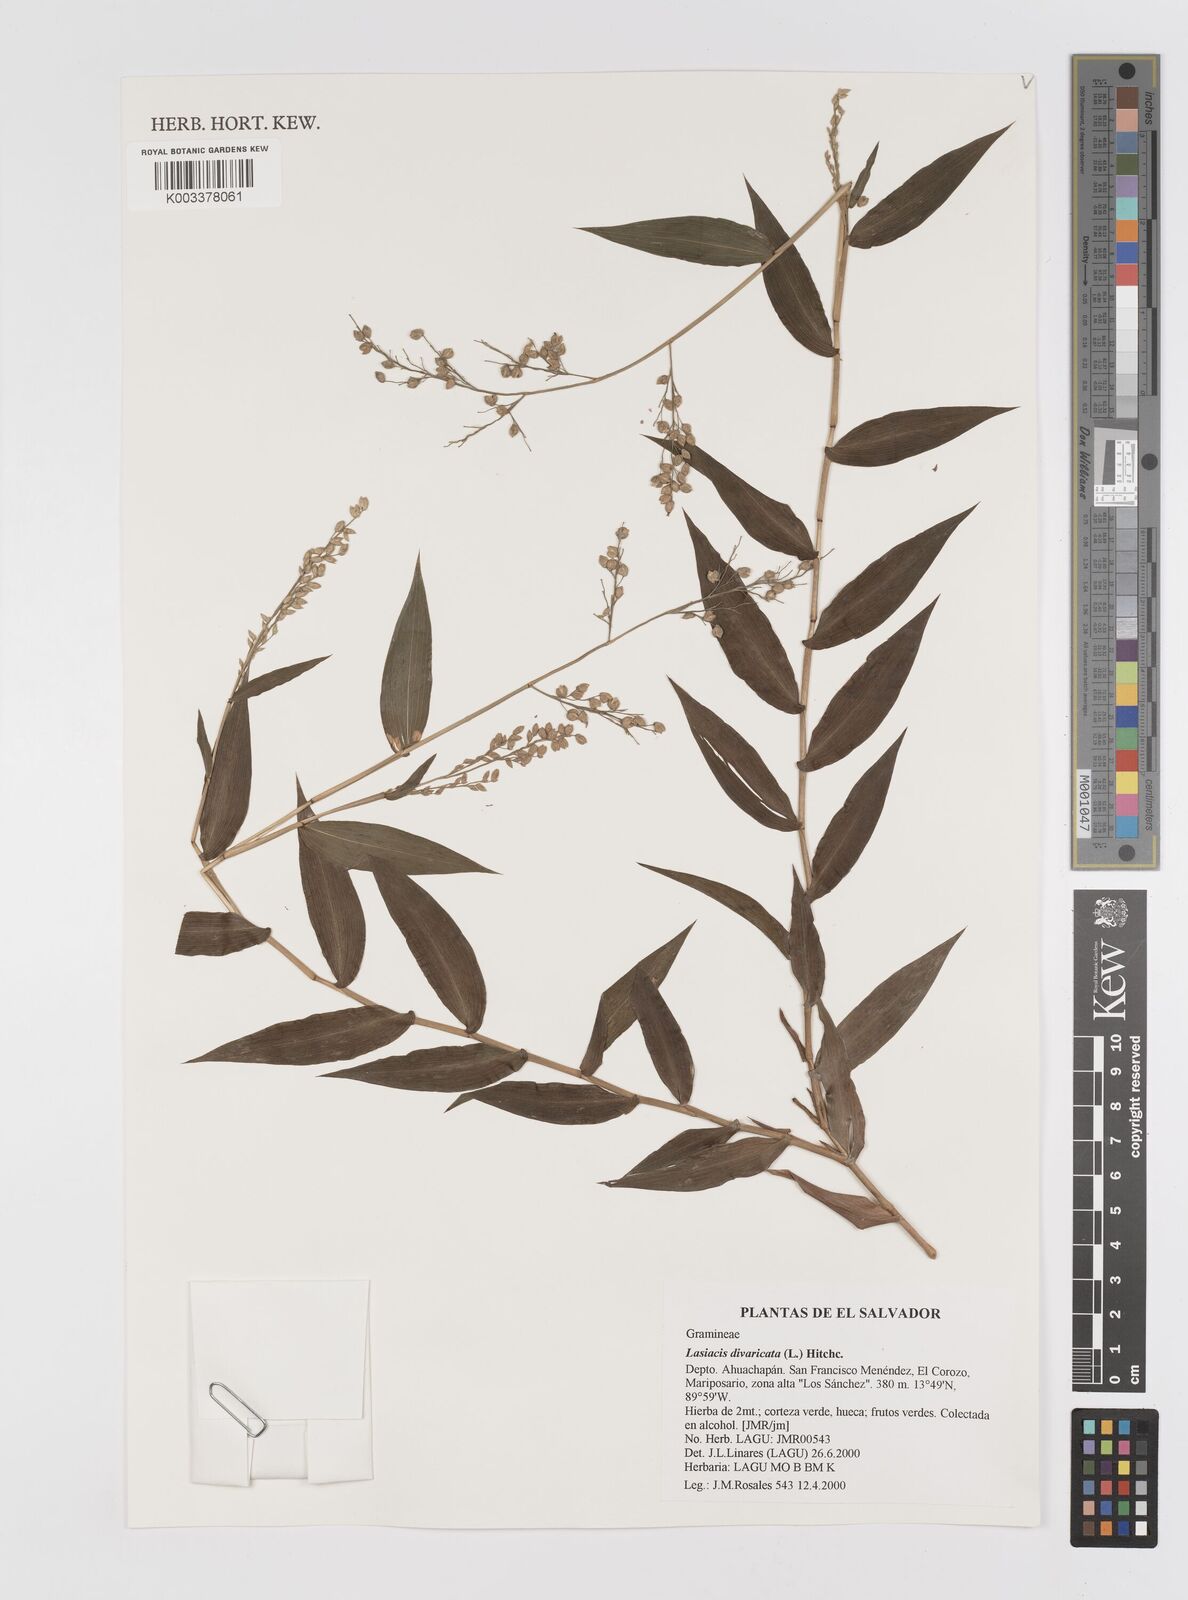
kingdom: Plantae
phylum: Tracheophyta
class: Liliopsida
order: Poales
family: Poaceae
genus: Lasiacis
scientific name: Lasiacis divaricata
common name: Smallcane
